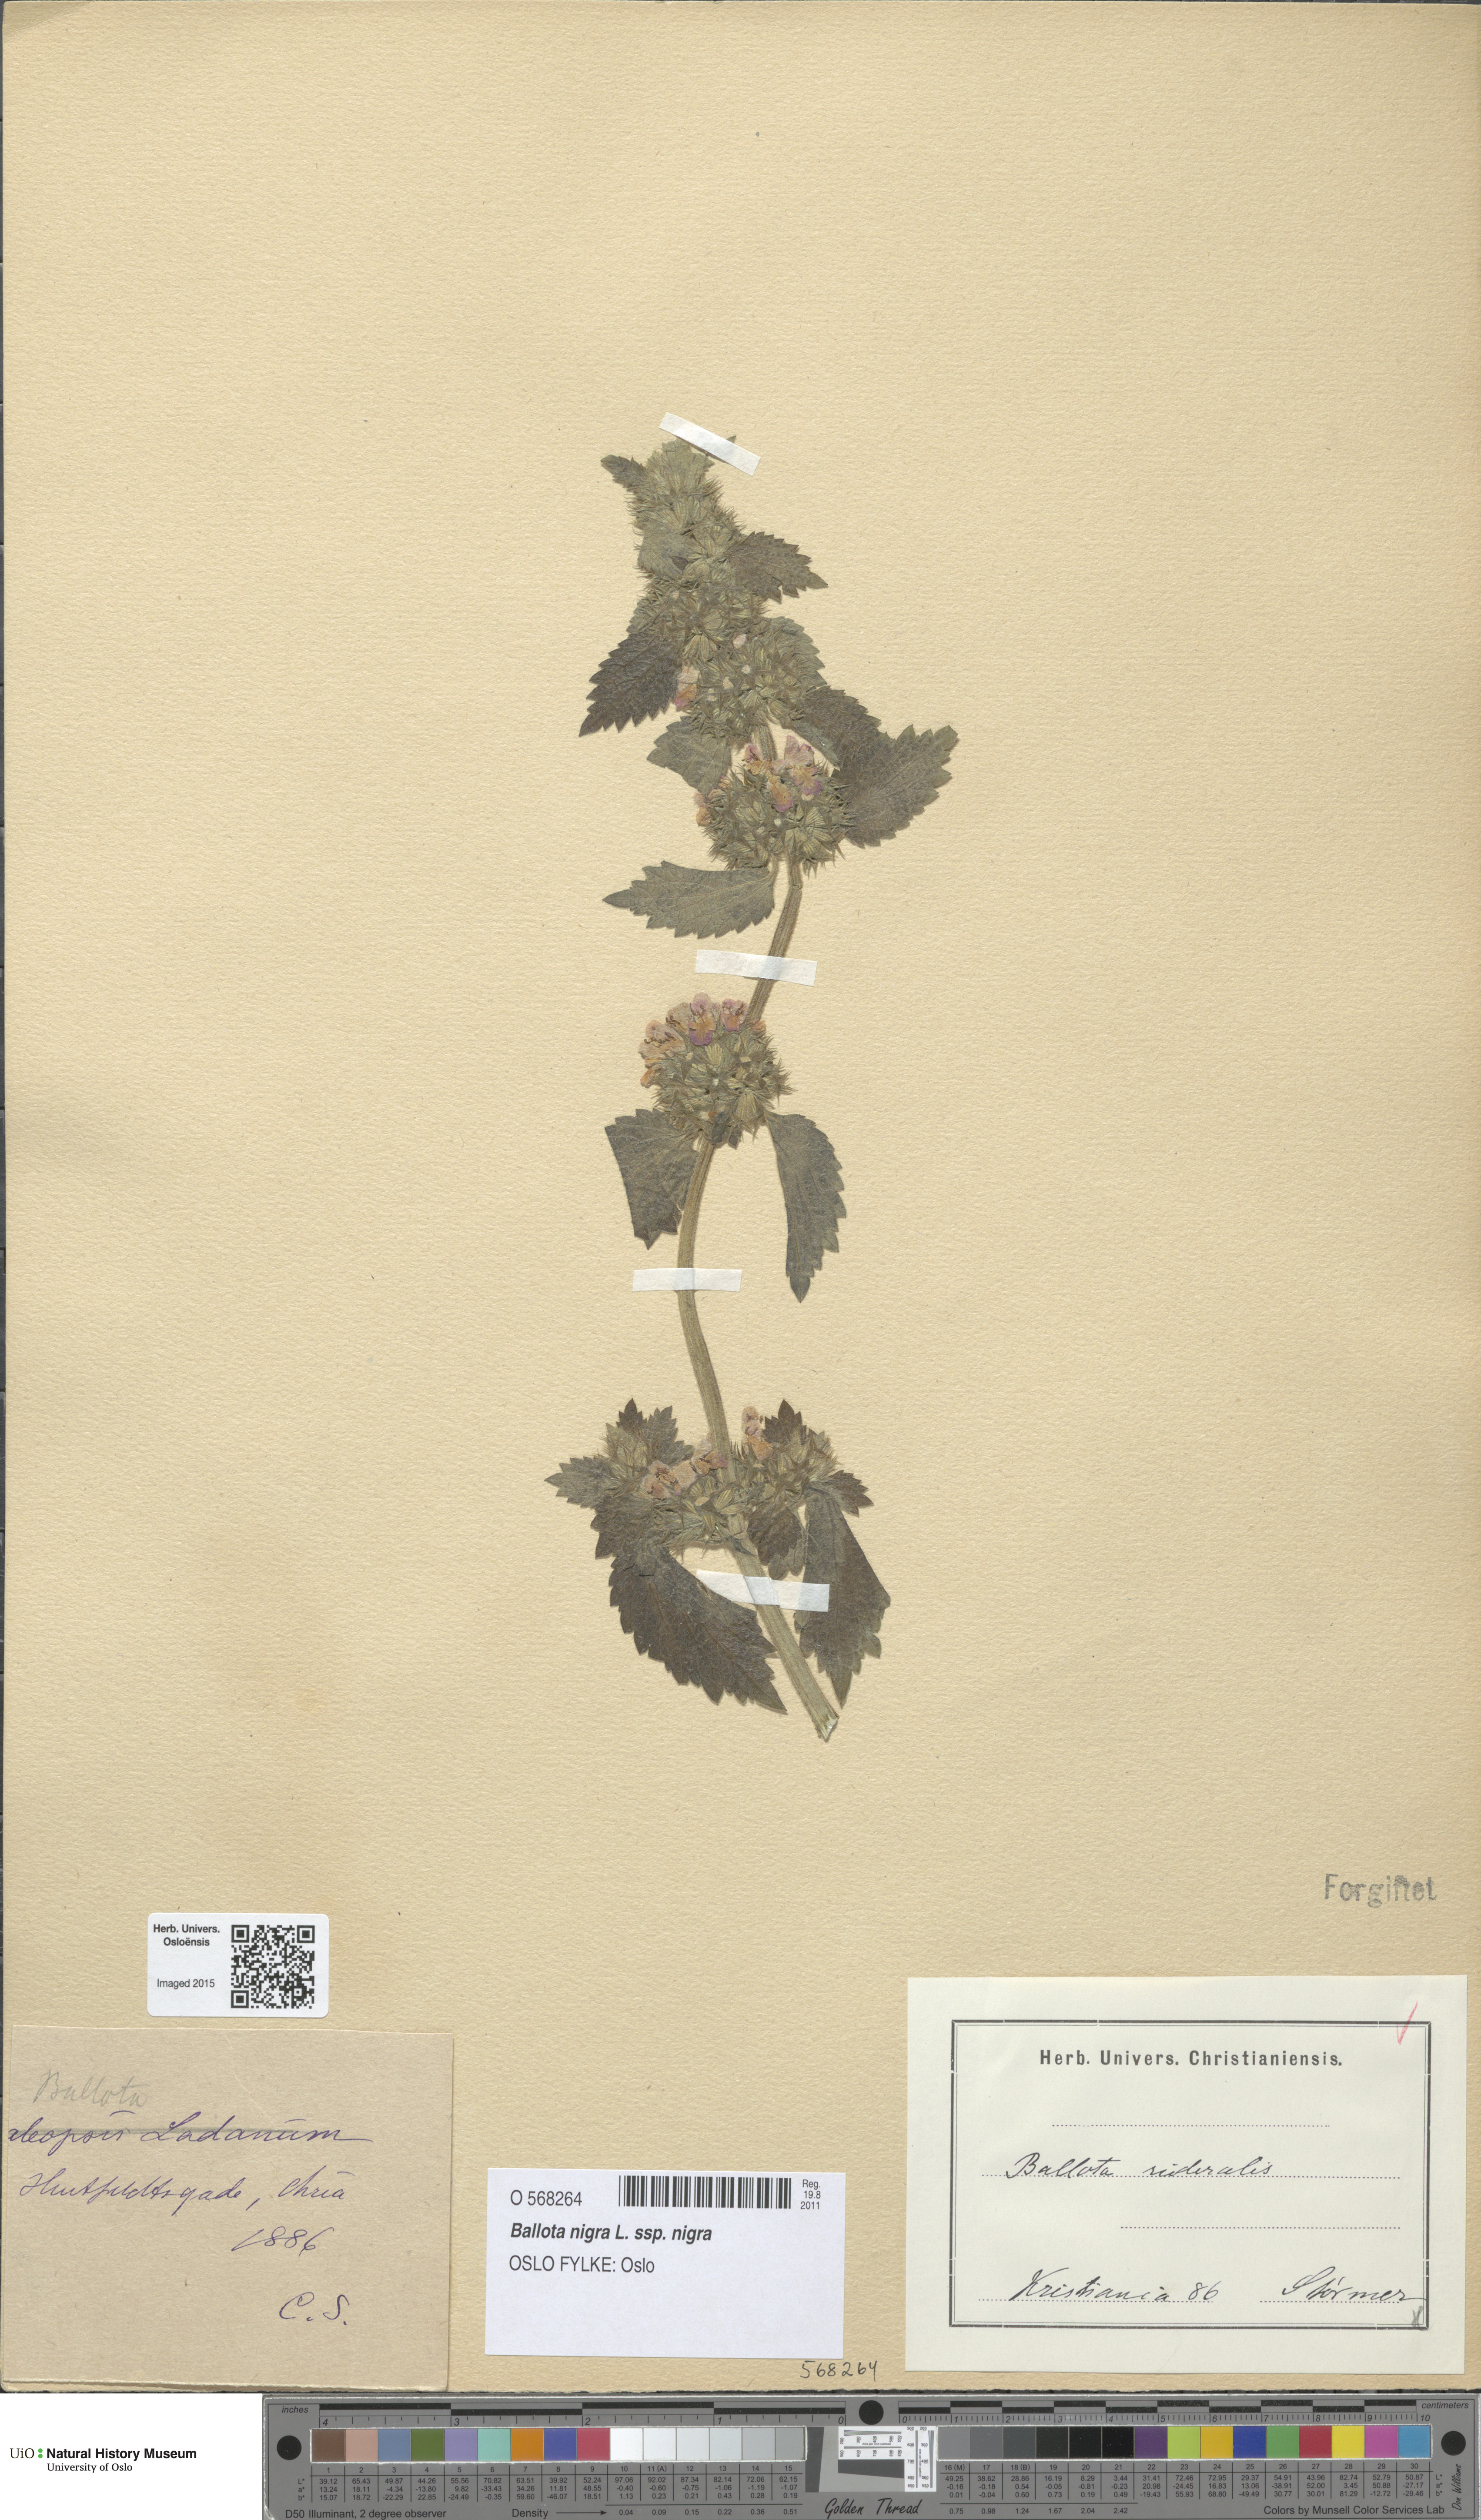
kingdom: Plantae
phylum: Tracheophyta
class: Magnoliopsida
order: Lamiales
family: Lamiaceae
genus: Ballota
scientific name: Ballota nigra
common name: Black horehound
